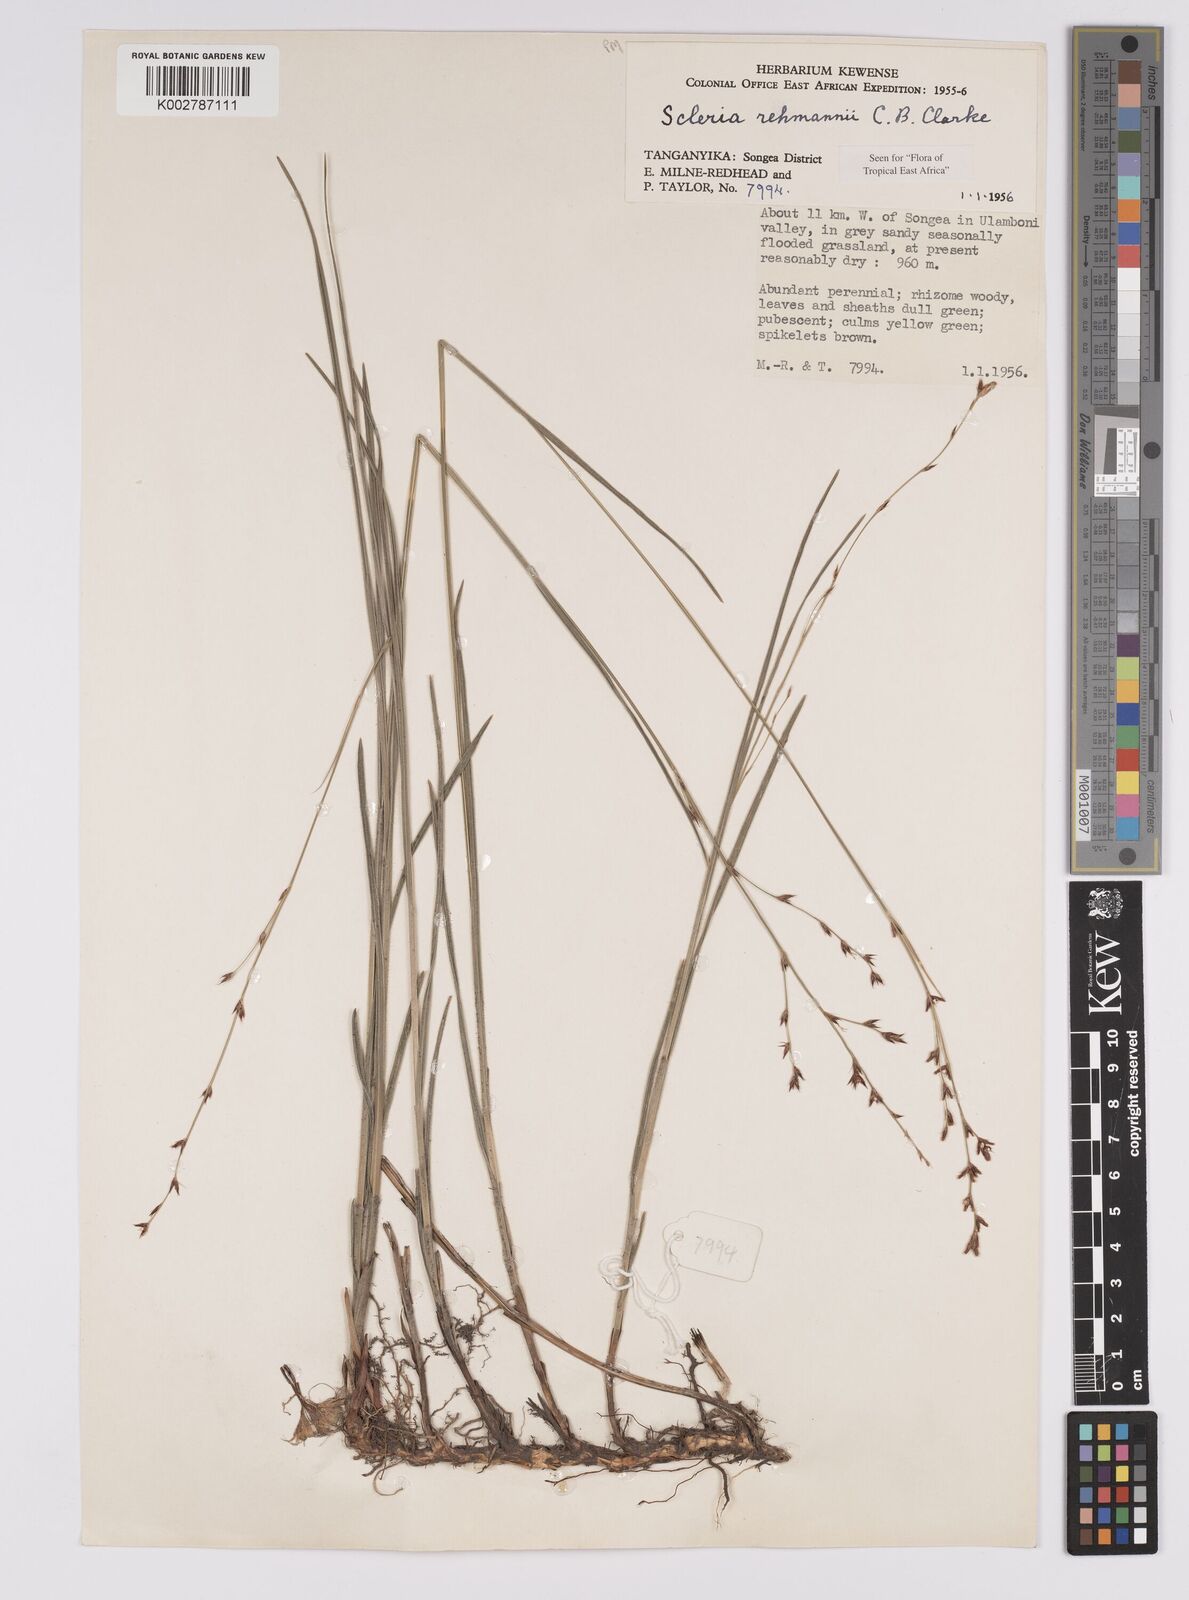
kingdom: Plantae
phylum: Tracheophyta
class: Liliopsida
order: Poales
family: Cyperaceae
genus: Scleria
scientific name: Scleria rehmannii
